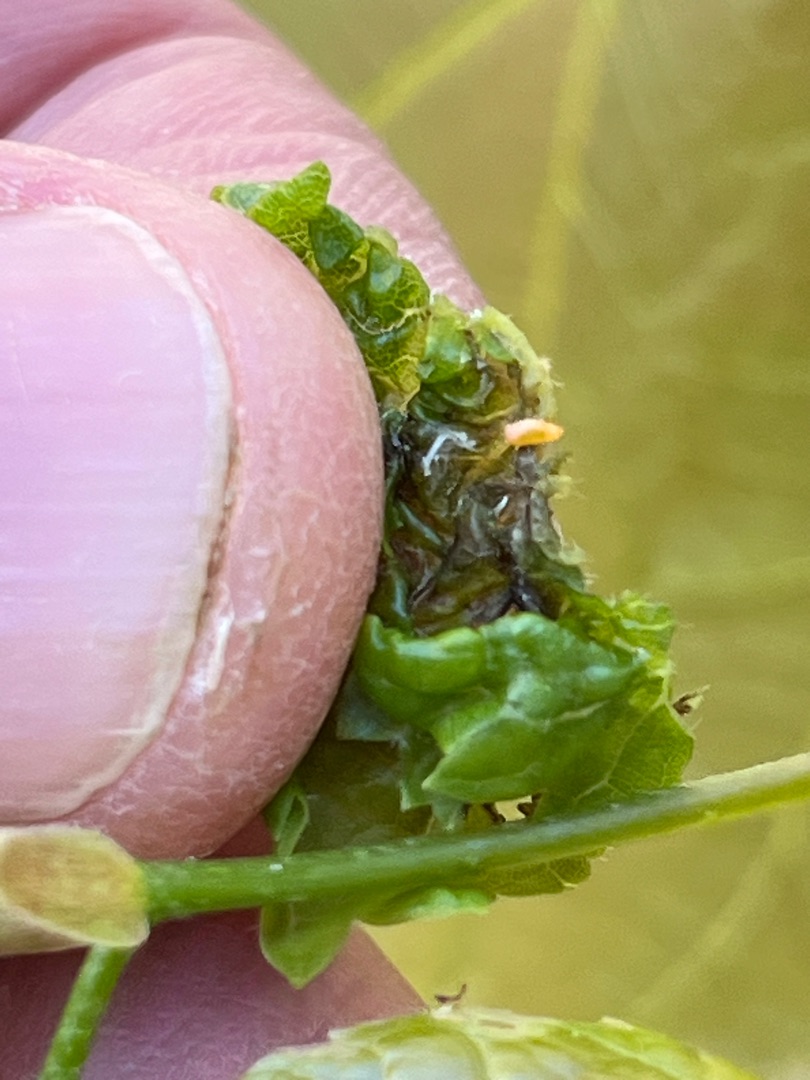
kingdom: Animalia
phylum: Arthropoda
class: Insecta
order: Diptera
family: Cecidomyiidae
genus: Dasineura
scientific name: Dasineura thomasiana
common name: Lindekrusegalmyg
